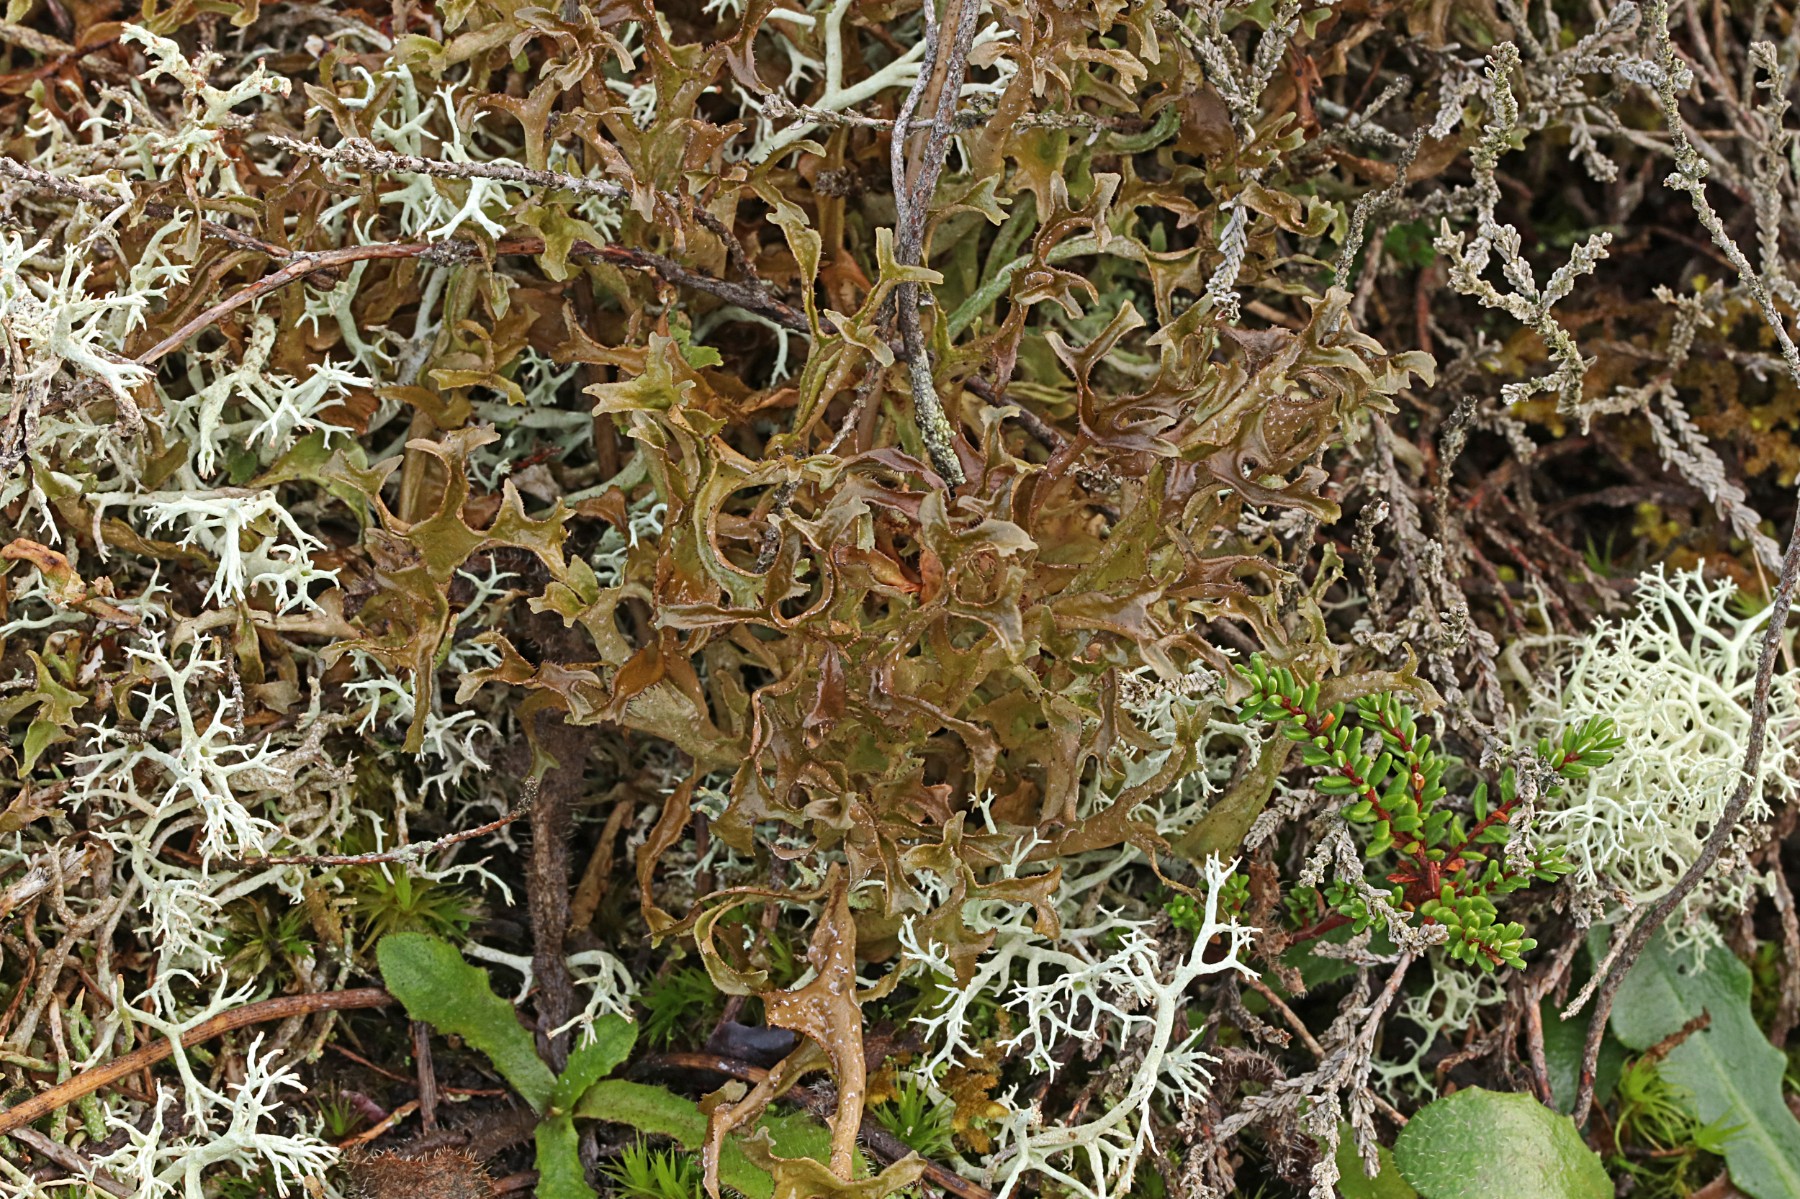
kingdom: Fungi
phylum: Ascomycota
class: Lecanoromycetes
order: Lecanorales
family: Parmeliaceae
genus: Cetraria
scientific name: Cetraria islandica
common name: islandsk kruslav
